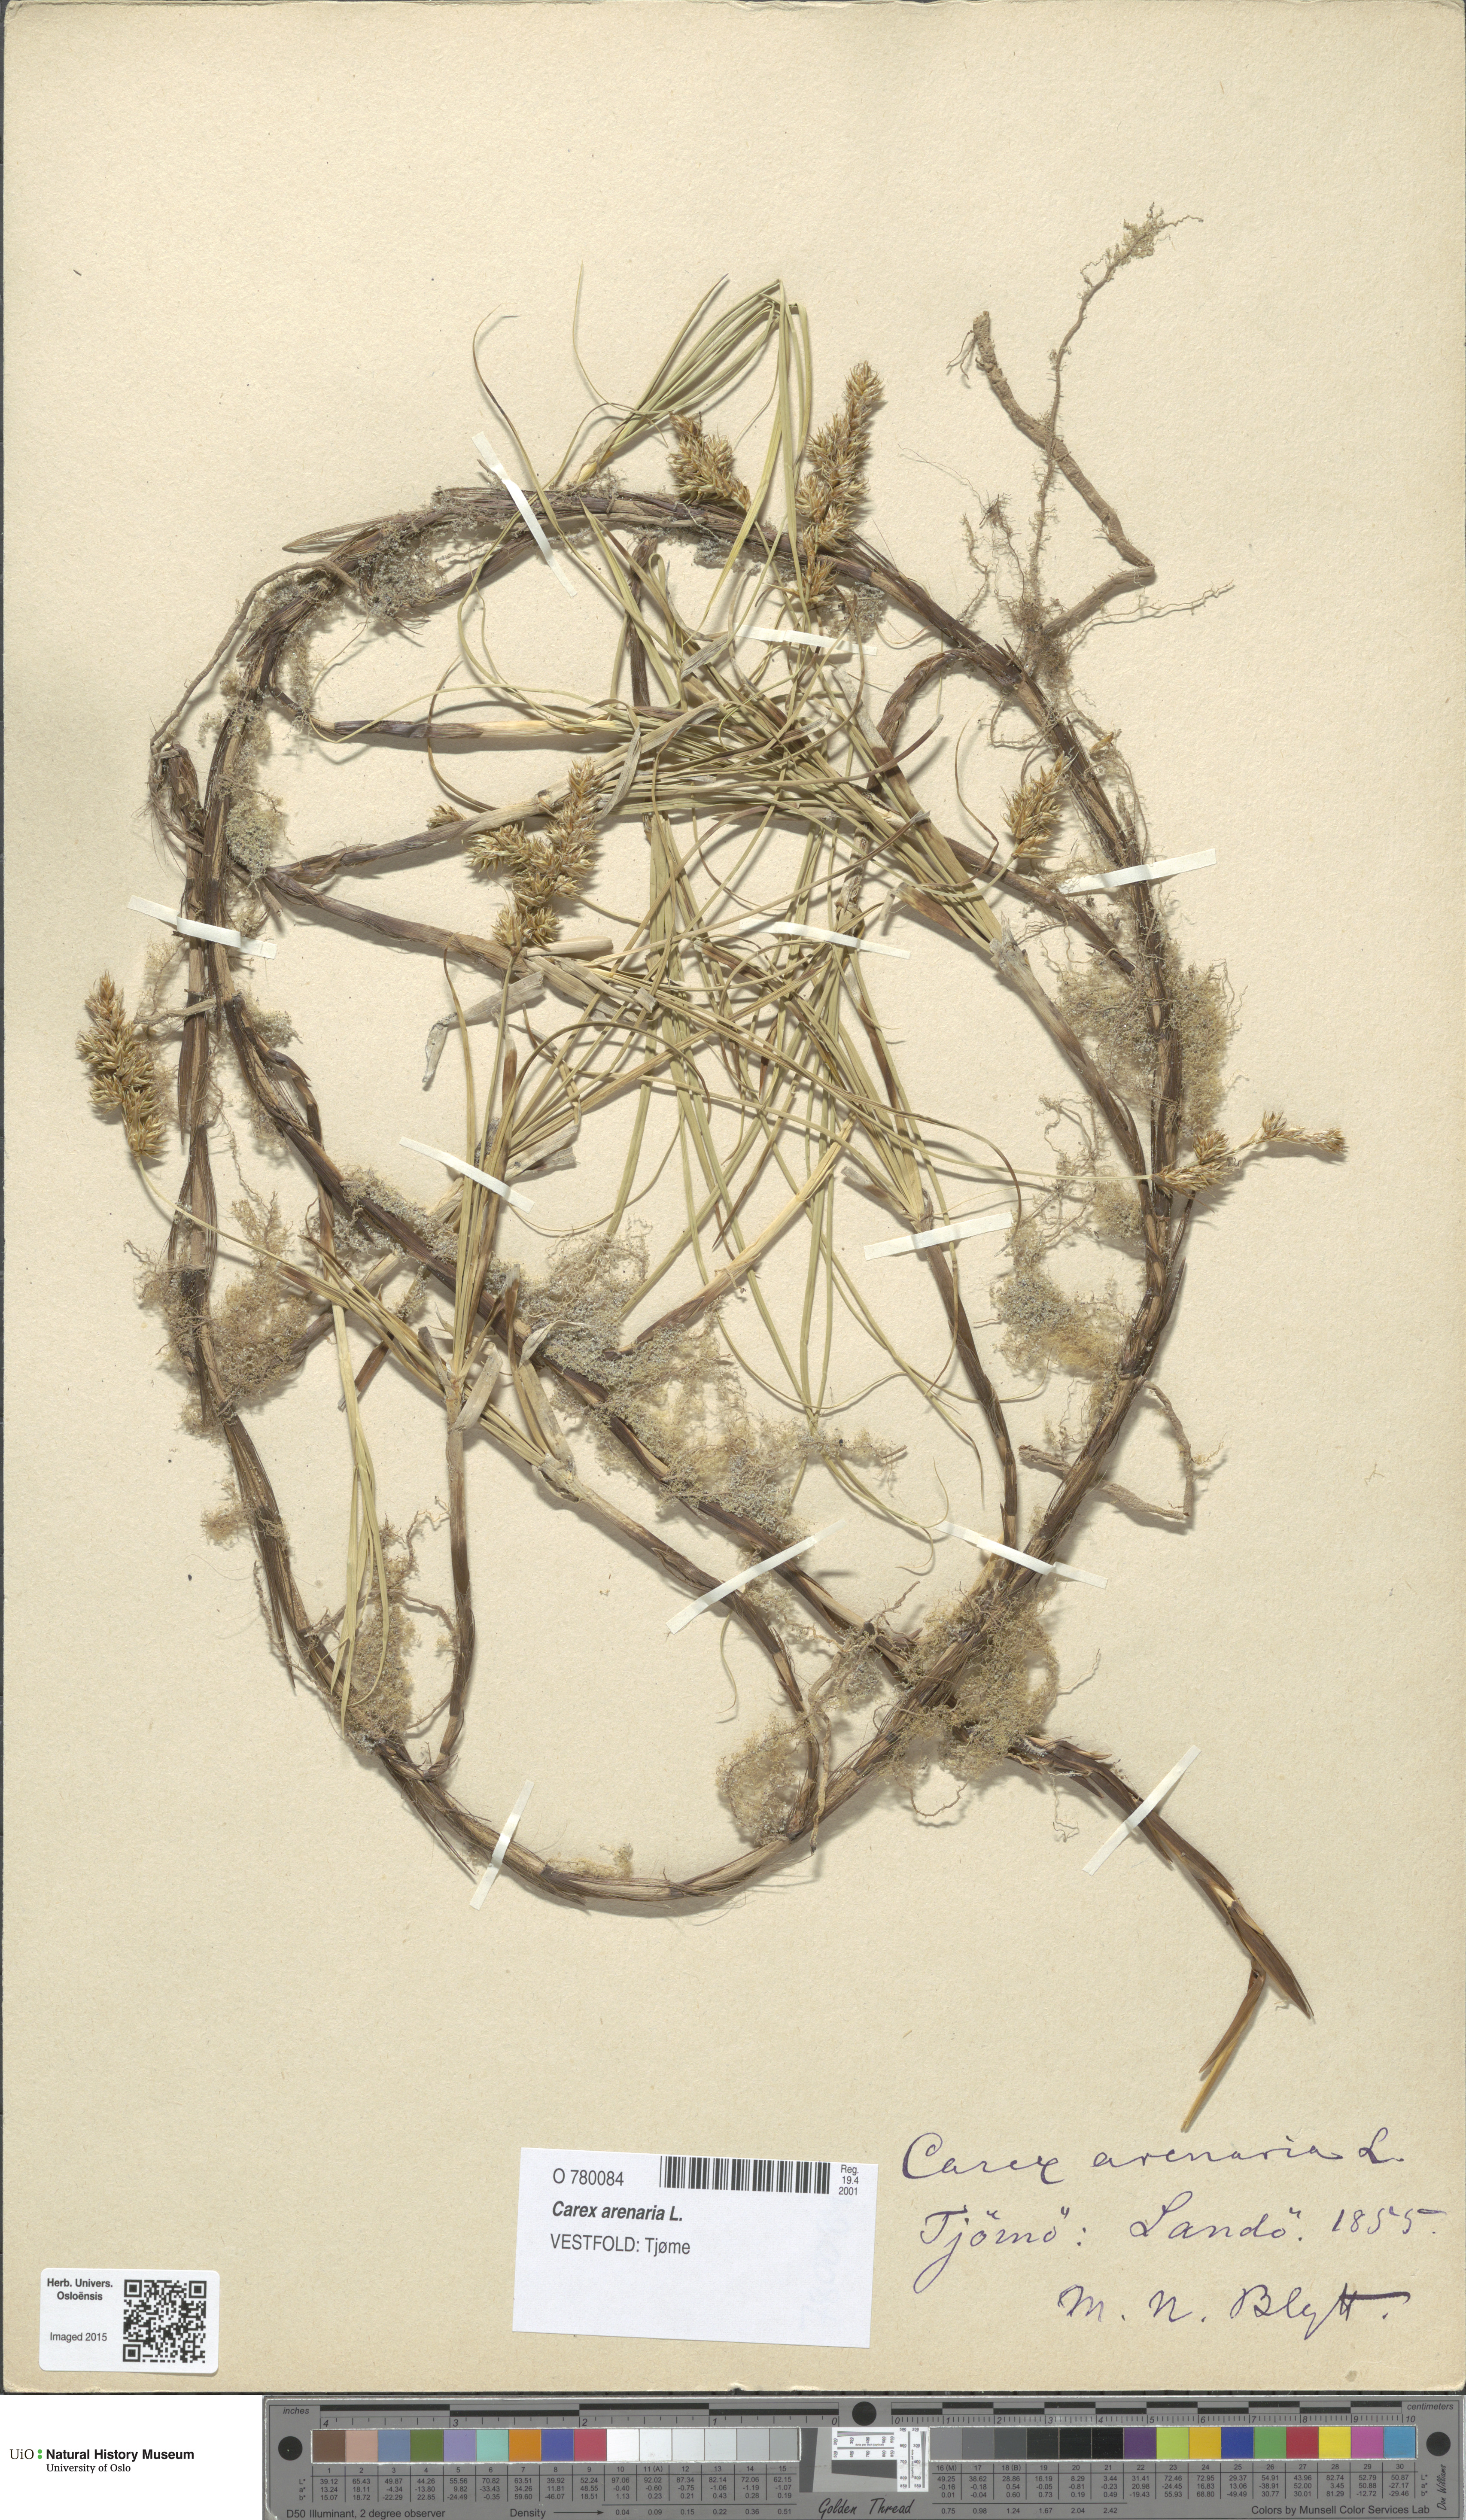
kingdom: Plantae
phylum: Tracheophyta
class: Liliopsida
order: Poales
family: Cyperaceae
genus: Carex
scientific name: Carex arenaria
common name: Sand sedge
